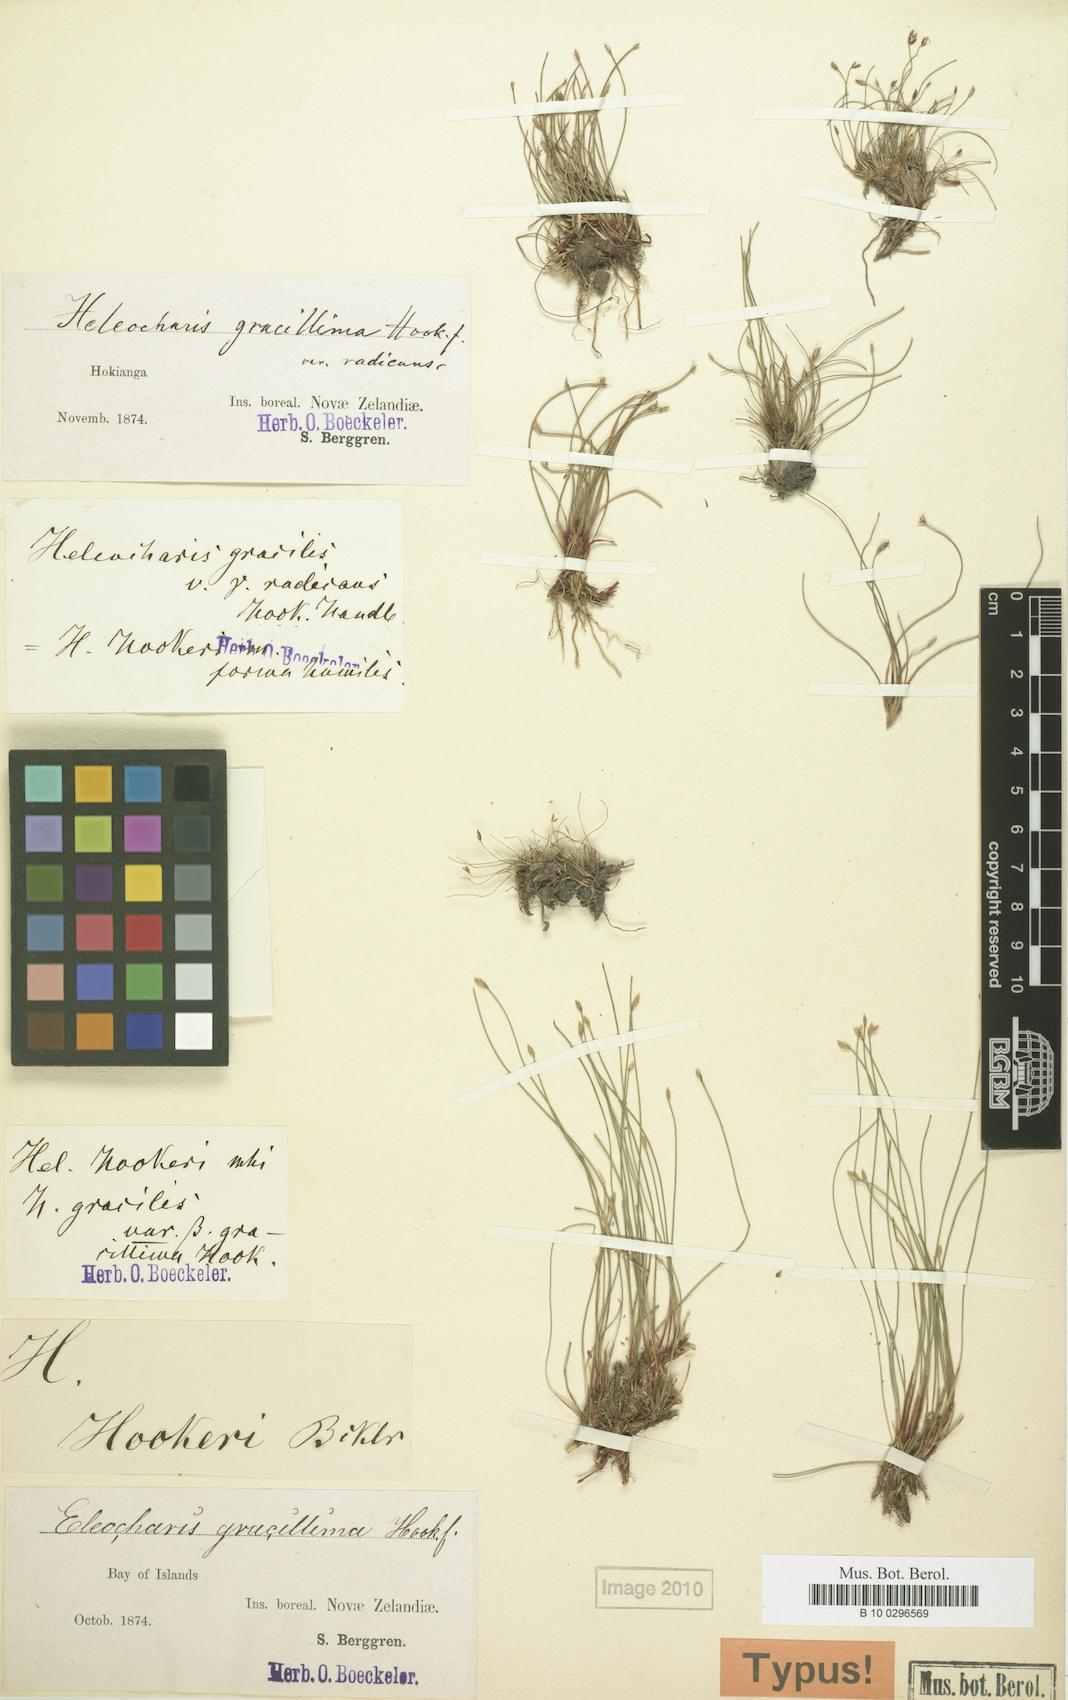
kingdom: Plantae
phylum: Tracheophyta
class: Liliopsida
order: Poales
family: Cyperaceae
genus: Eleocharis
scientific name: Eleocharis multicaulis
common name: Many-stalked spike-rush
